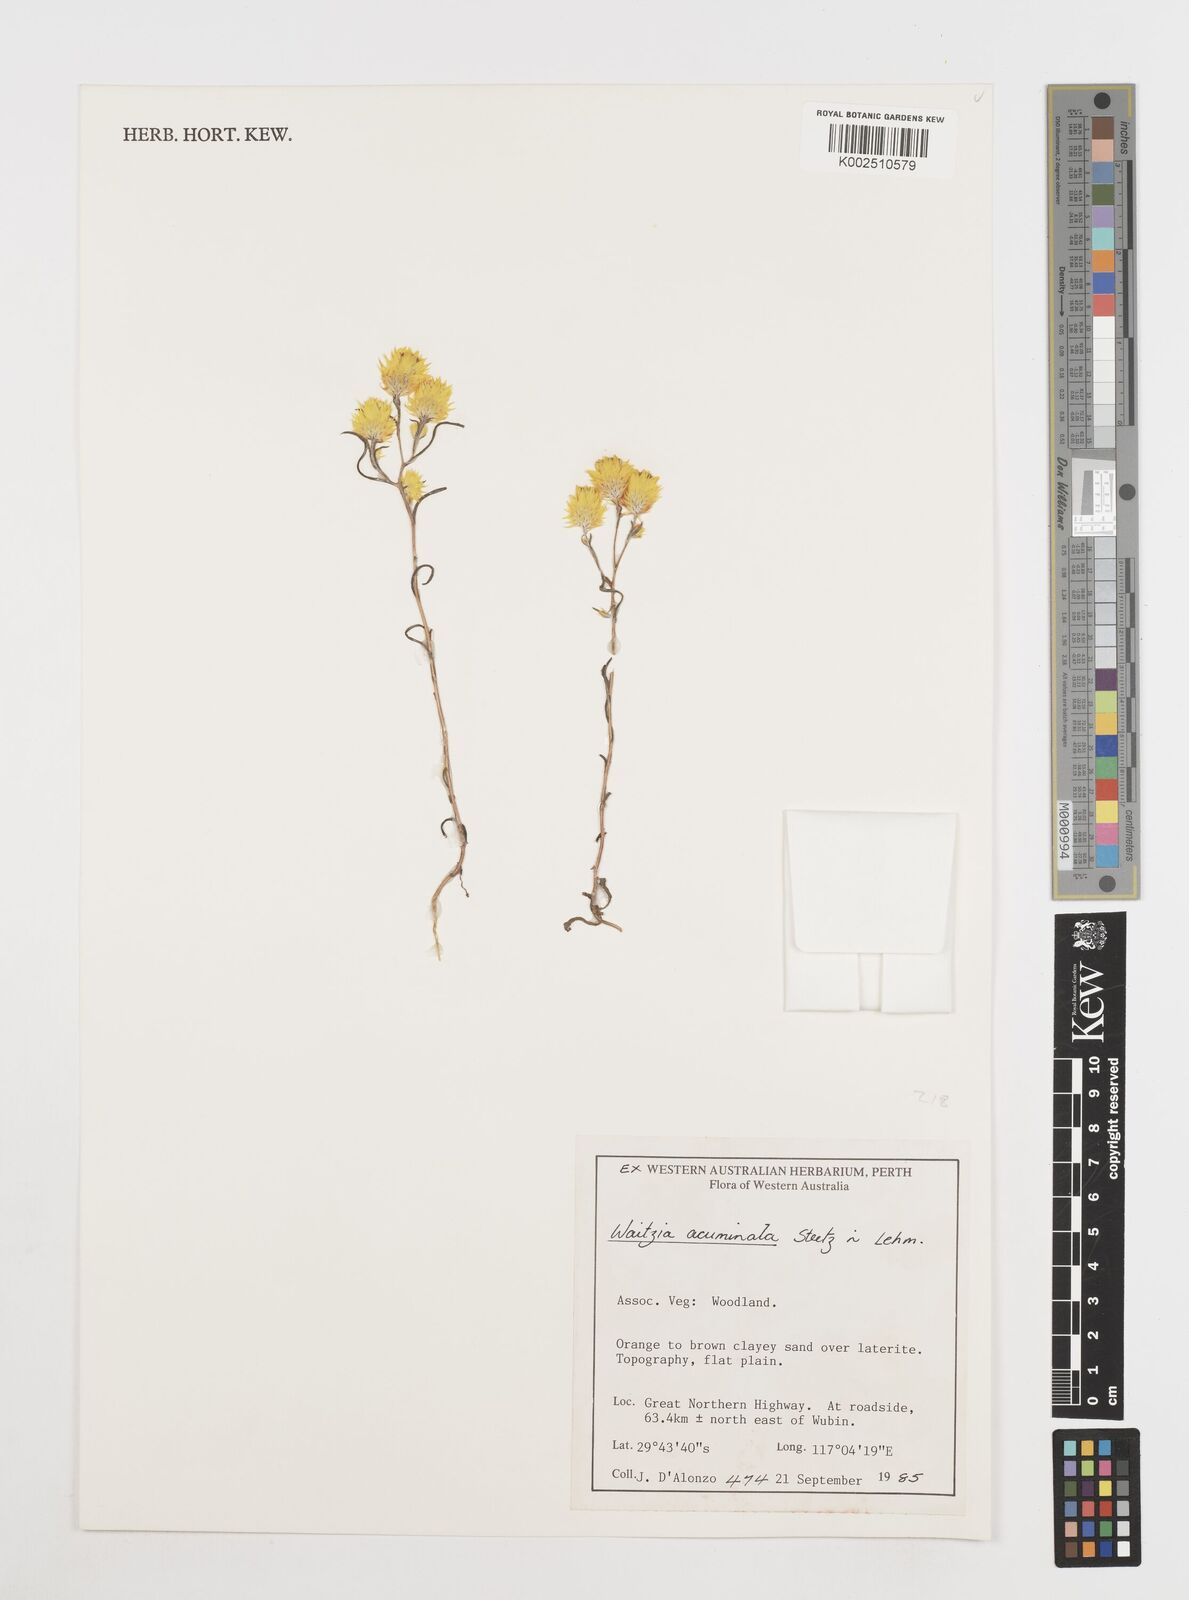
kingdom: Plantae
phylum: Tracheophyta
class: Magnoliopsida
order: Asterales
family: Asteraceae
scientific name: Asteraceae
